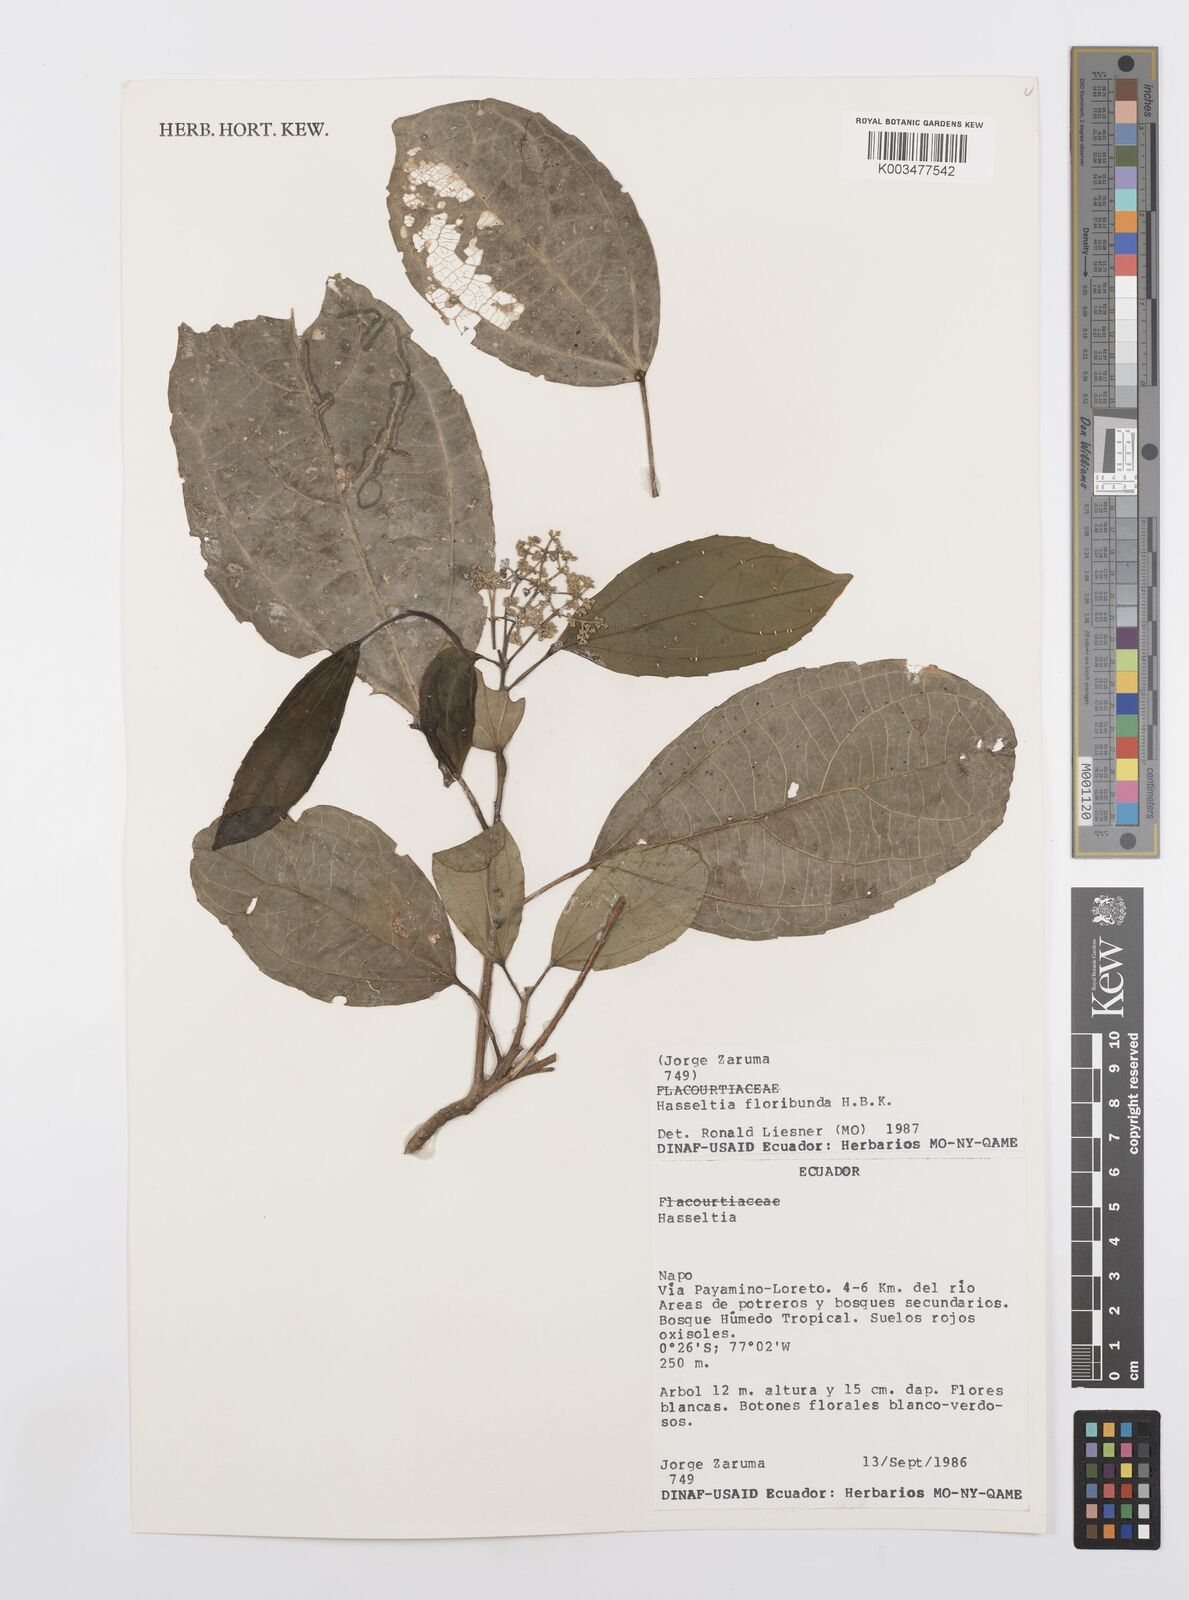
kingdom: Plantae
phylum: Tracheophyta
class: Magnoliopsida
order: Malpighiales
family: Salicaceae
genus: Hasseltia
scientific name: Hasseltia floribunda
